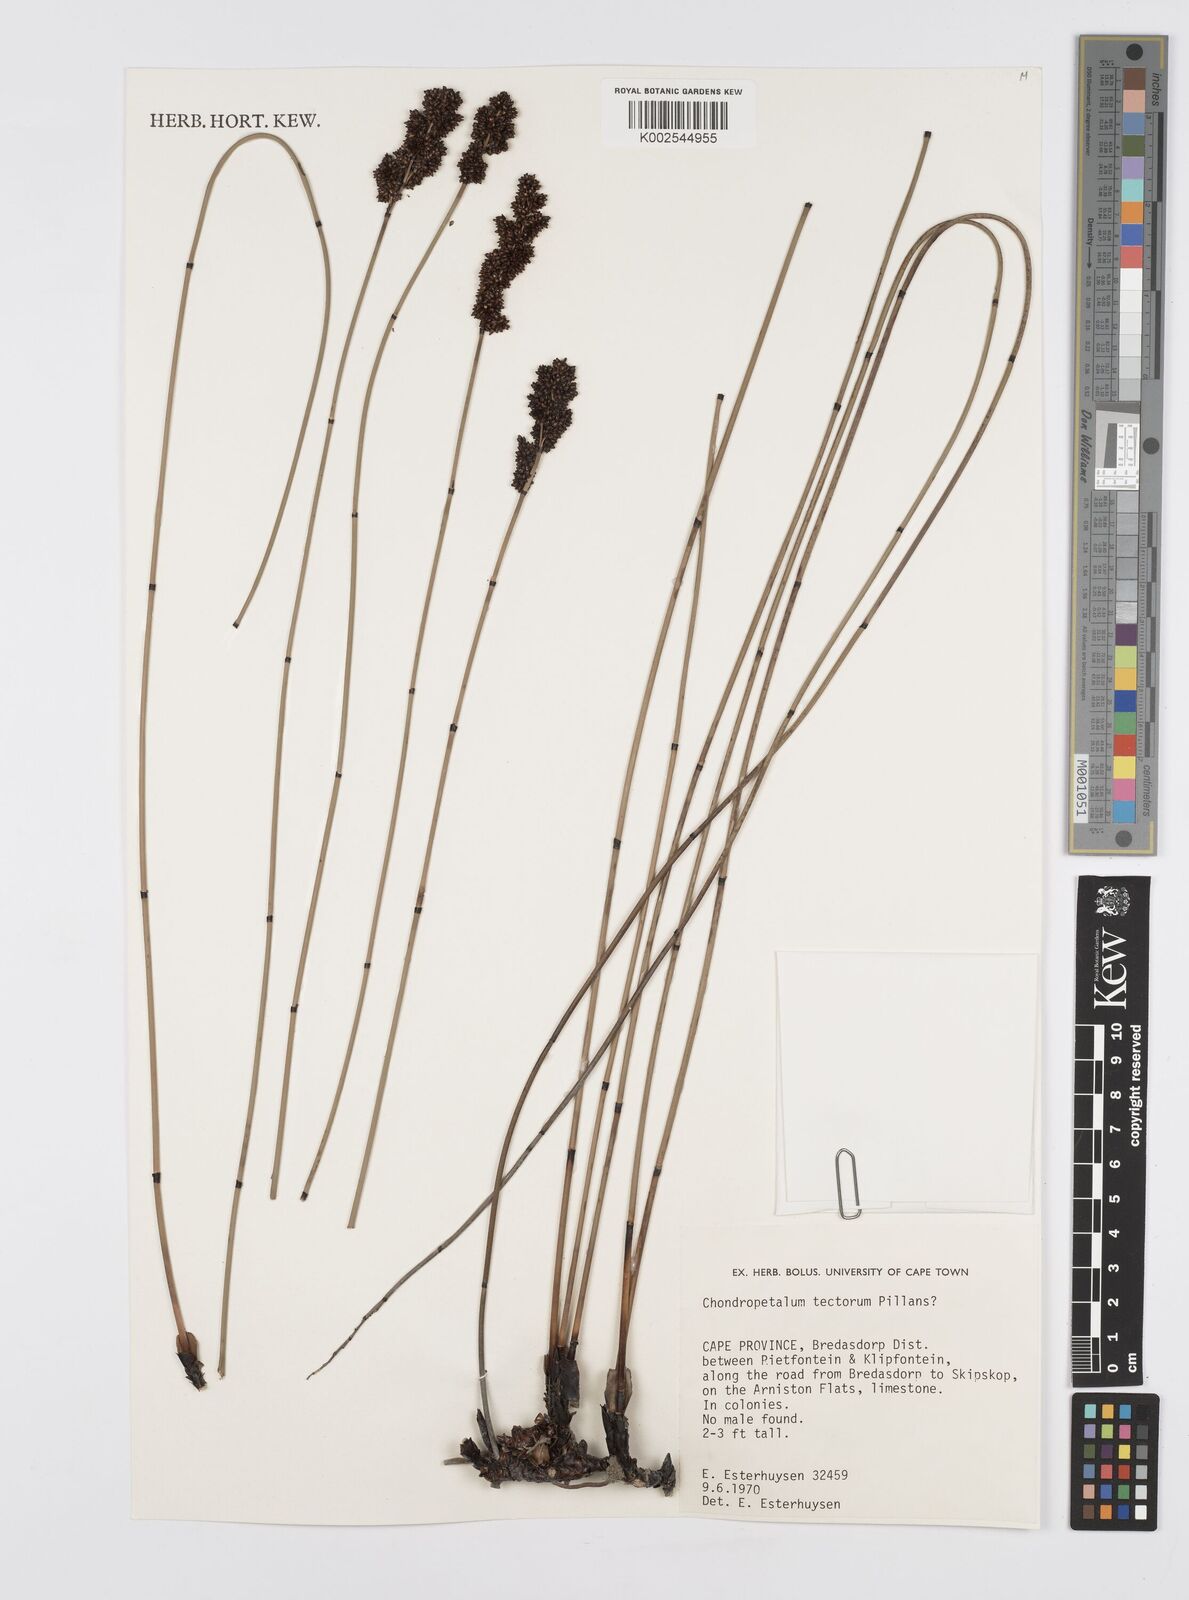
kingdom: Plantae
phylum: Tracheophyta
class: Liliopsida
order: Poales
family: Restionaceae
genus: Elegia
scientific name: Elegia tectorum
